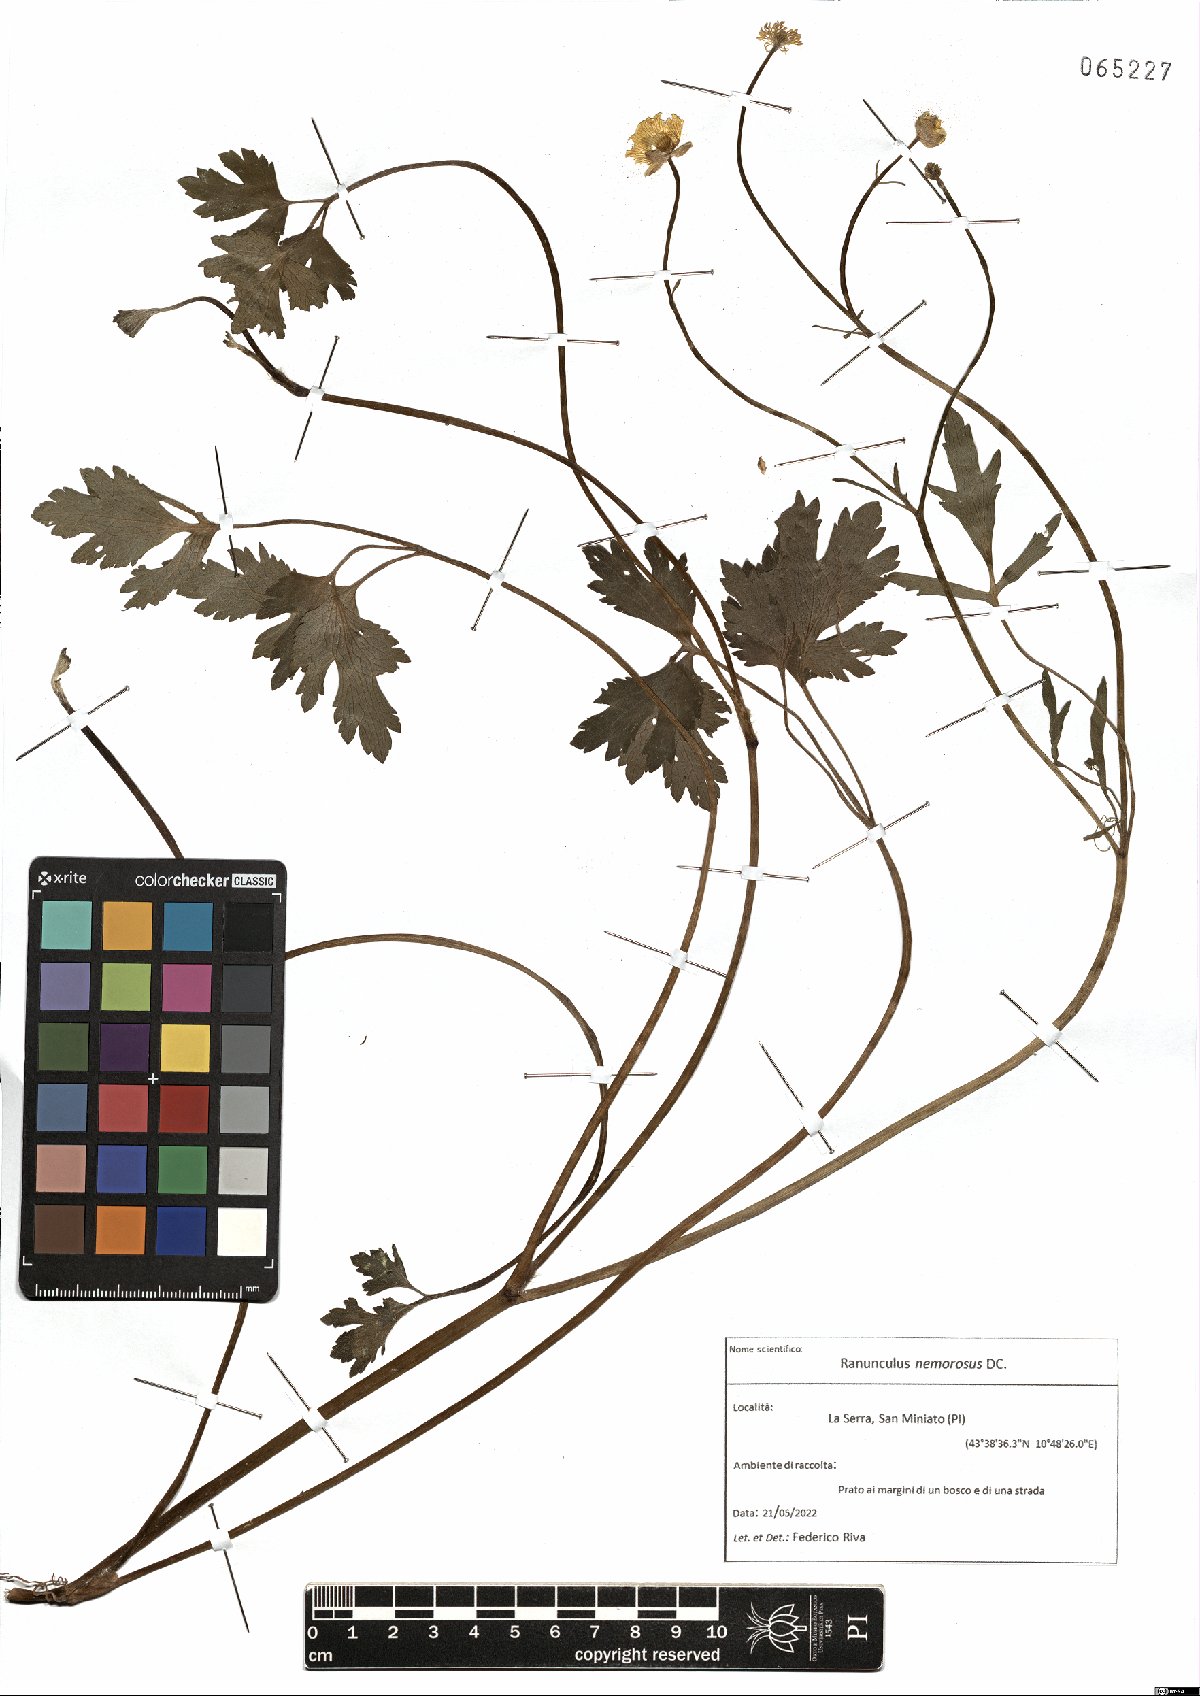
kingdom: Plantae
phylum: Tracheophyta
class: Magnoliopsida
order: Ranunculales
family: Ranunculaceae
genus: Ranunculus
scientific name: Ranunculus polyanthemos
